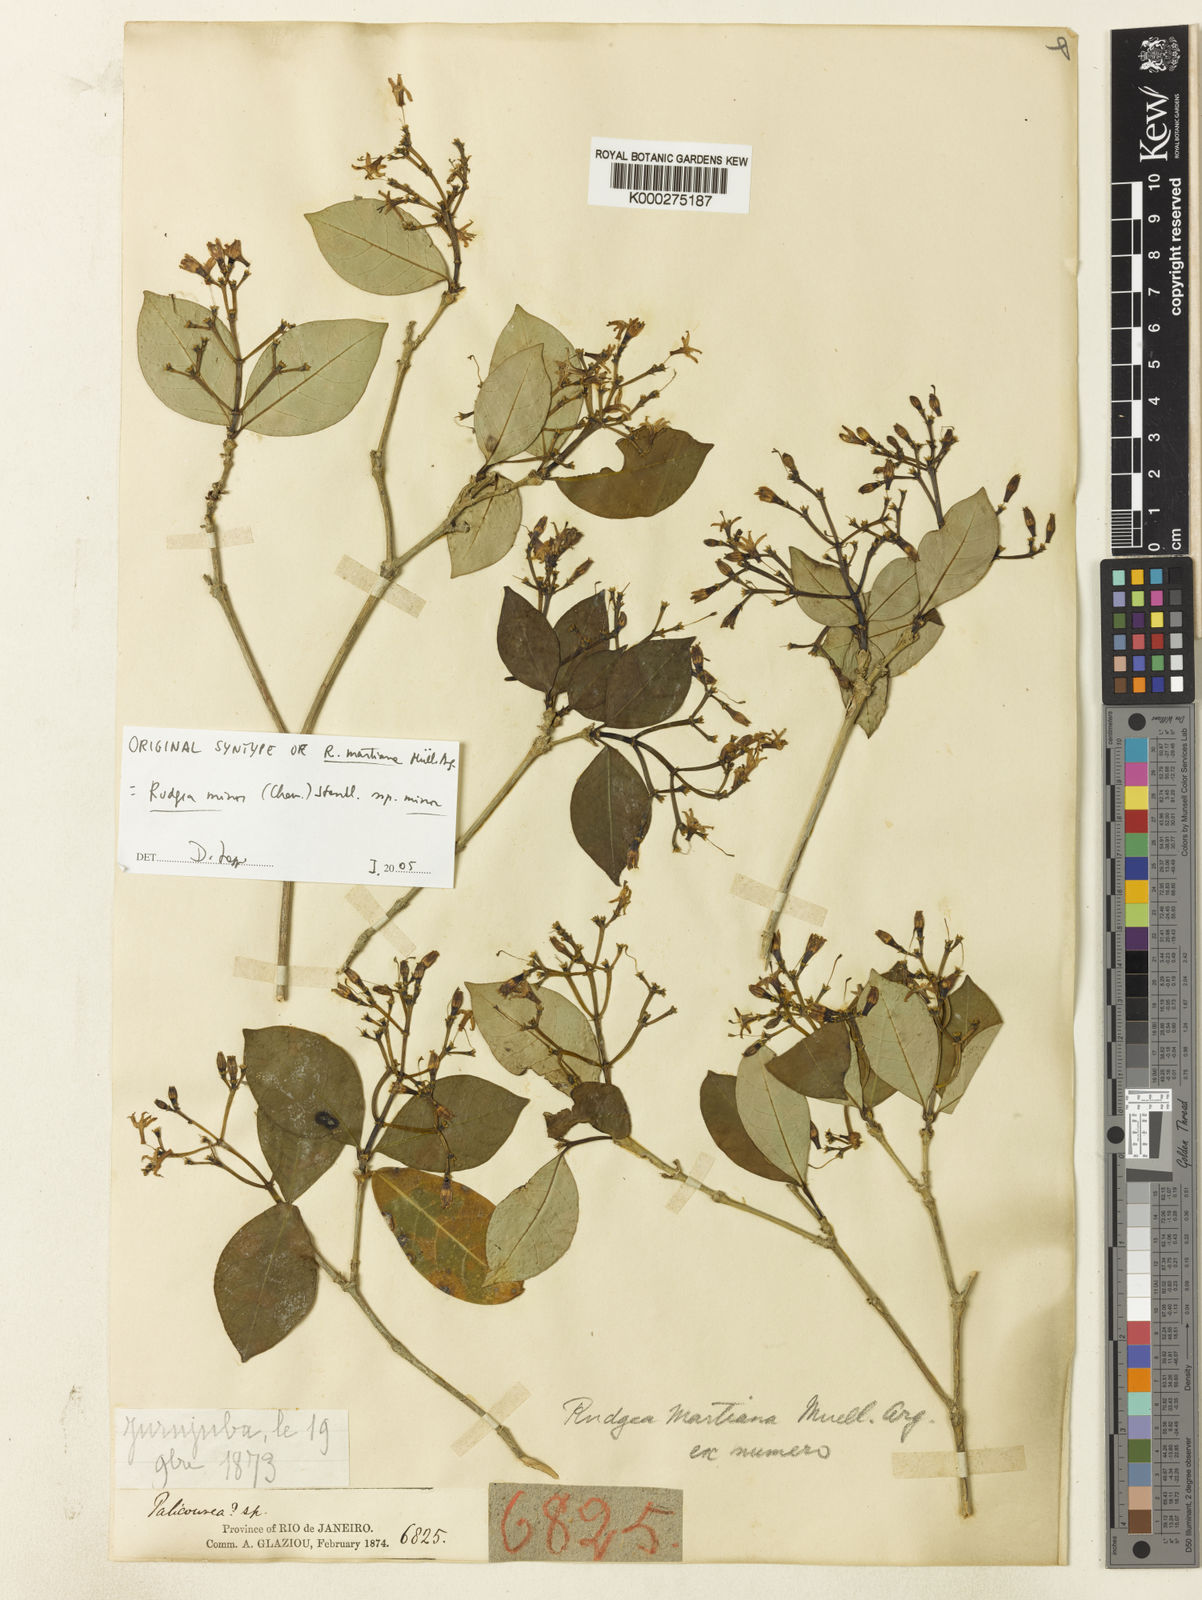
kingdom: Plantae
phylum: Tracheophyta
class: Magnoliopsida
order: Gentianales
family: Rubiaceae
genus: Rudgea
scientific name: Rudgea minor
